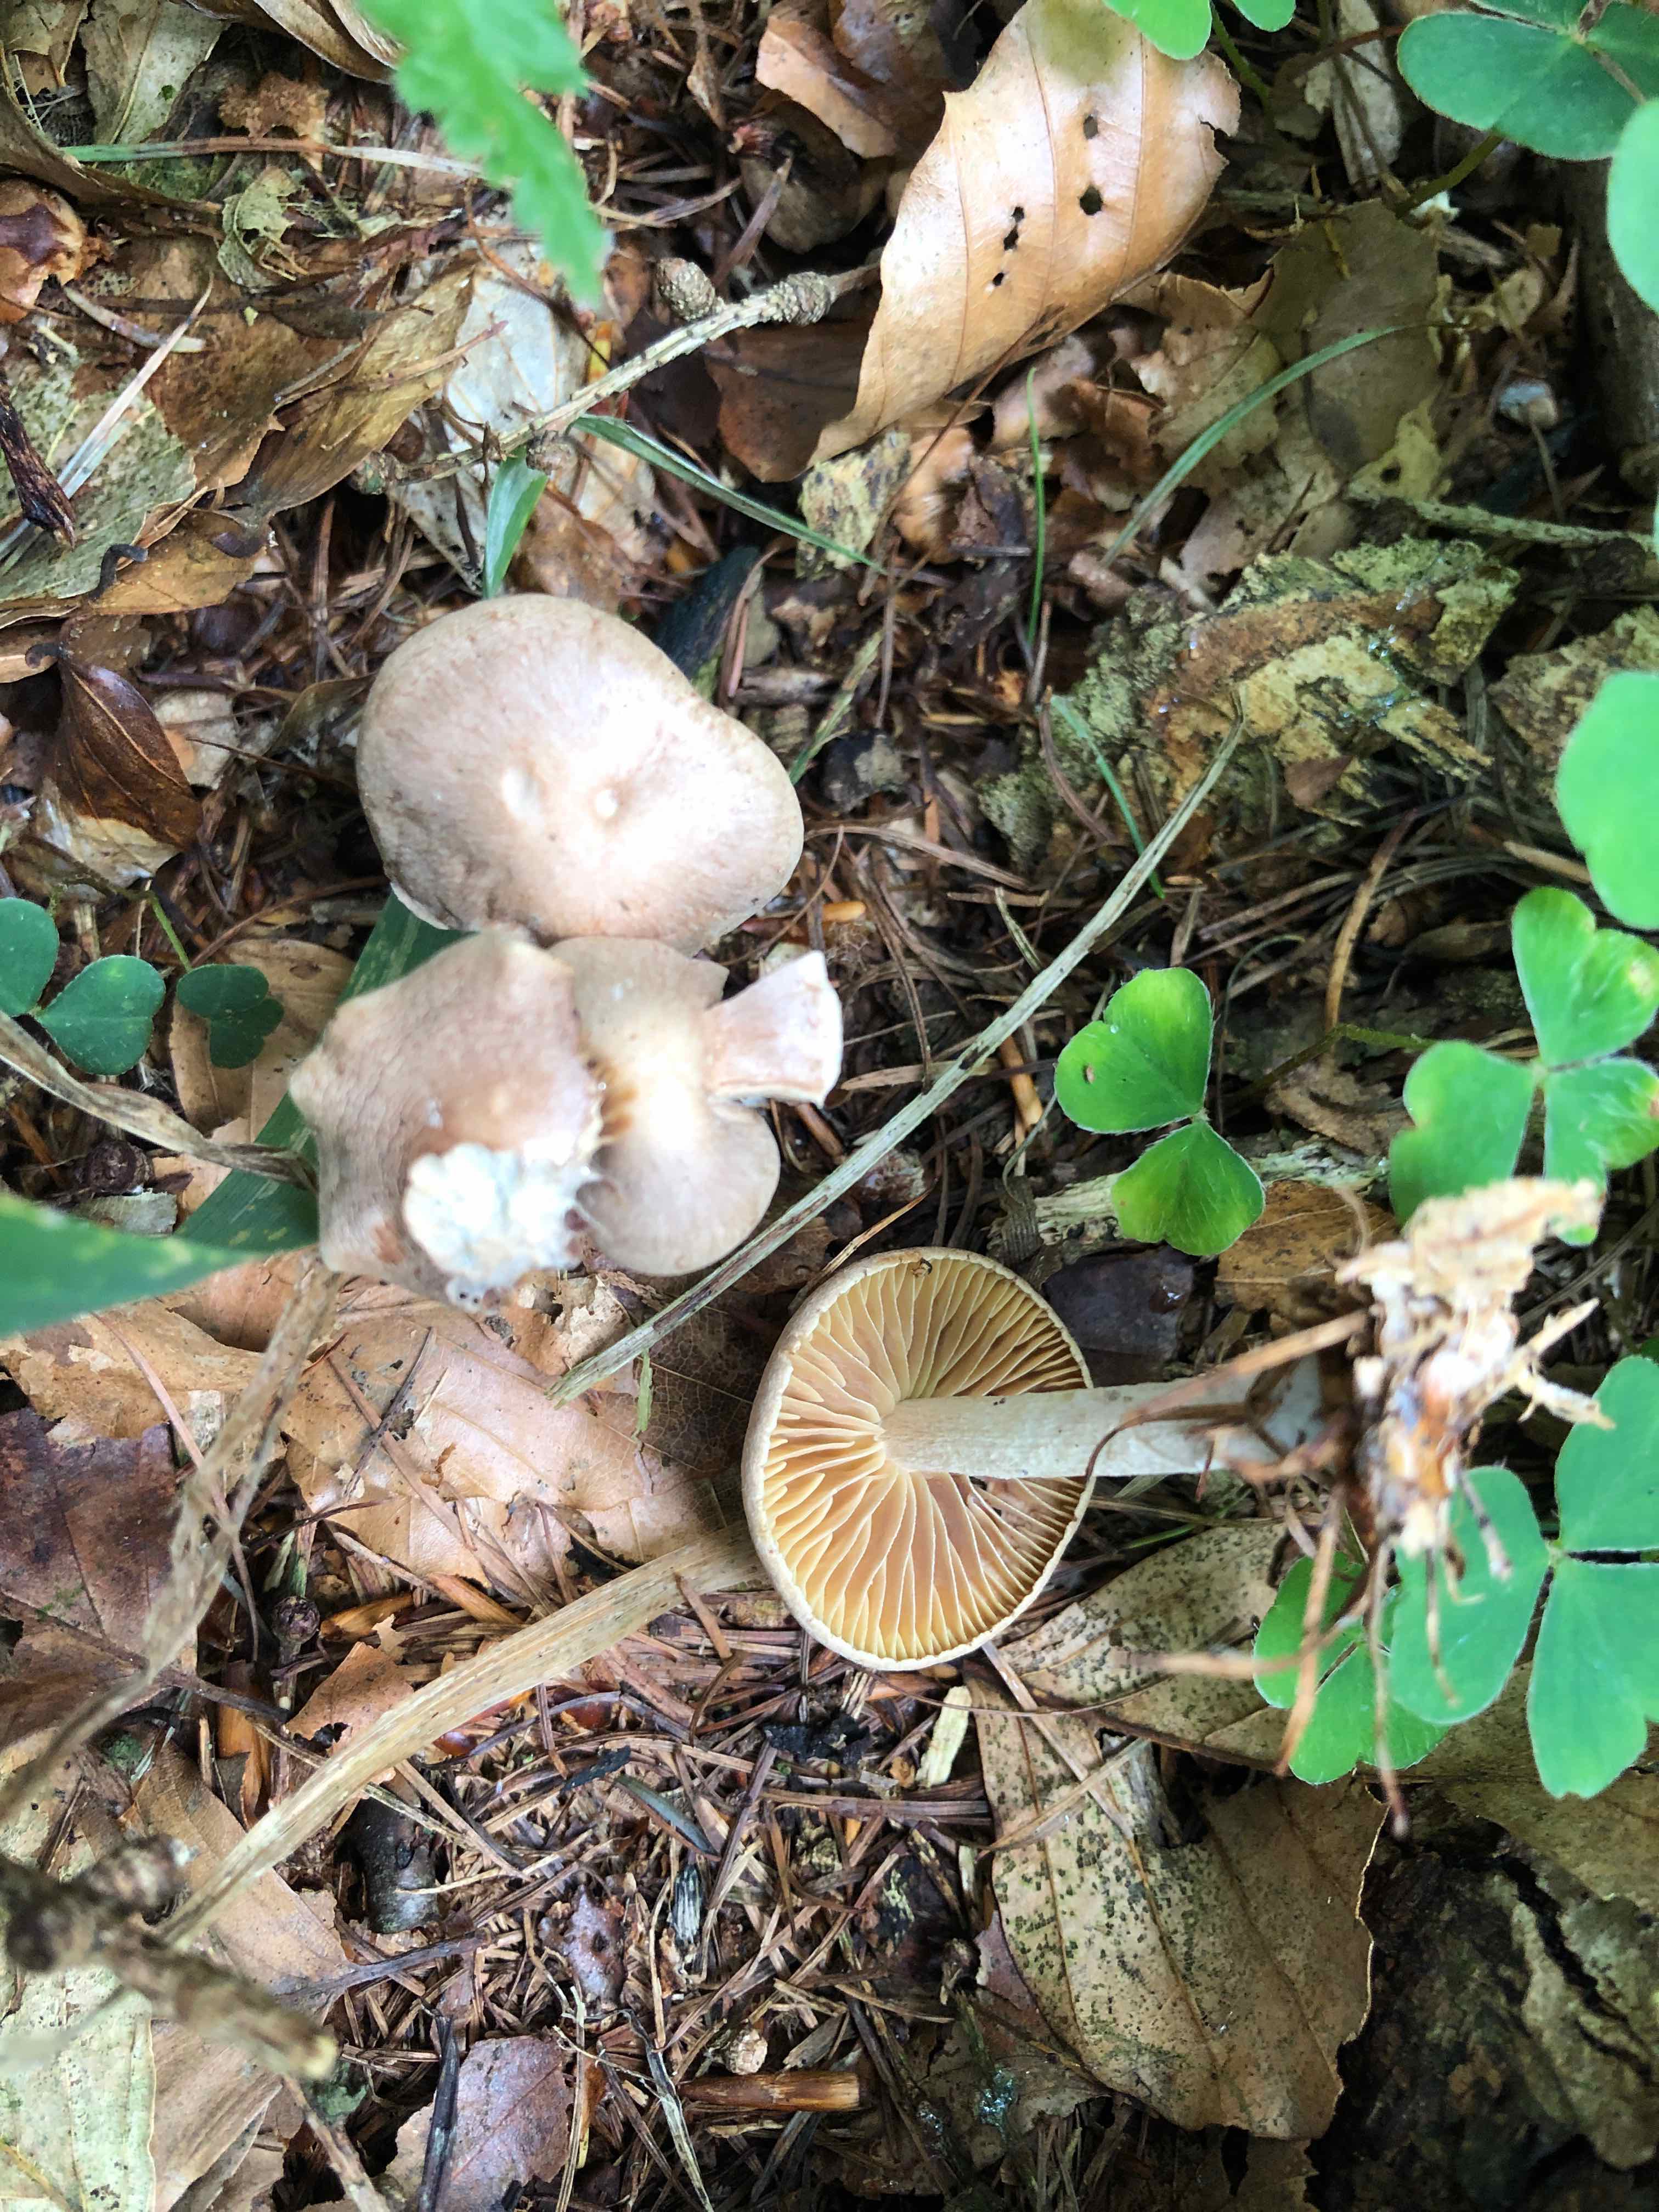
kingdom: Fungi
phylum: Basidiomycota
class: Agaricomycetes
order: Agaricales
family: Omphalotaceae
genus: Collybiopsis
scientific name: Collybiopsis peronata
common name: bestøvlet fladhat
